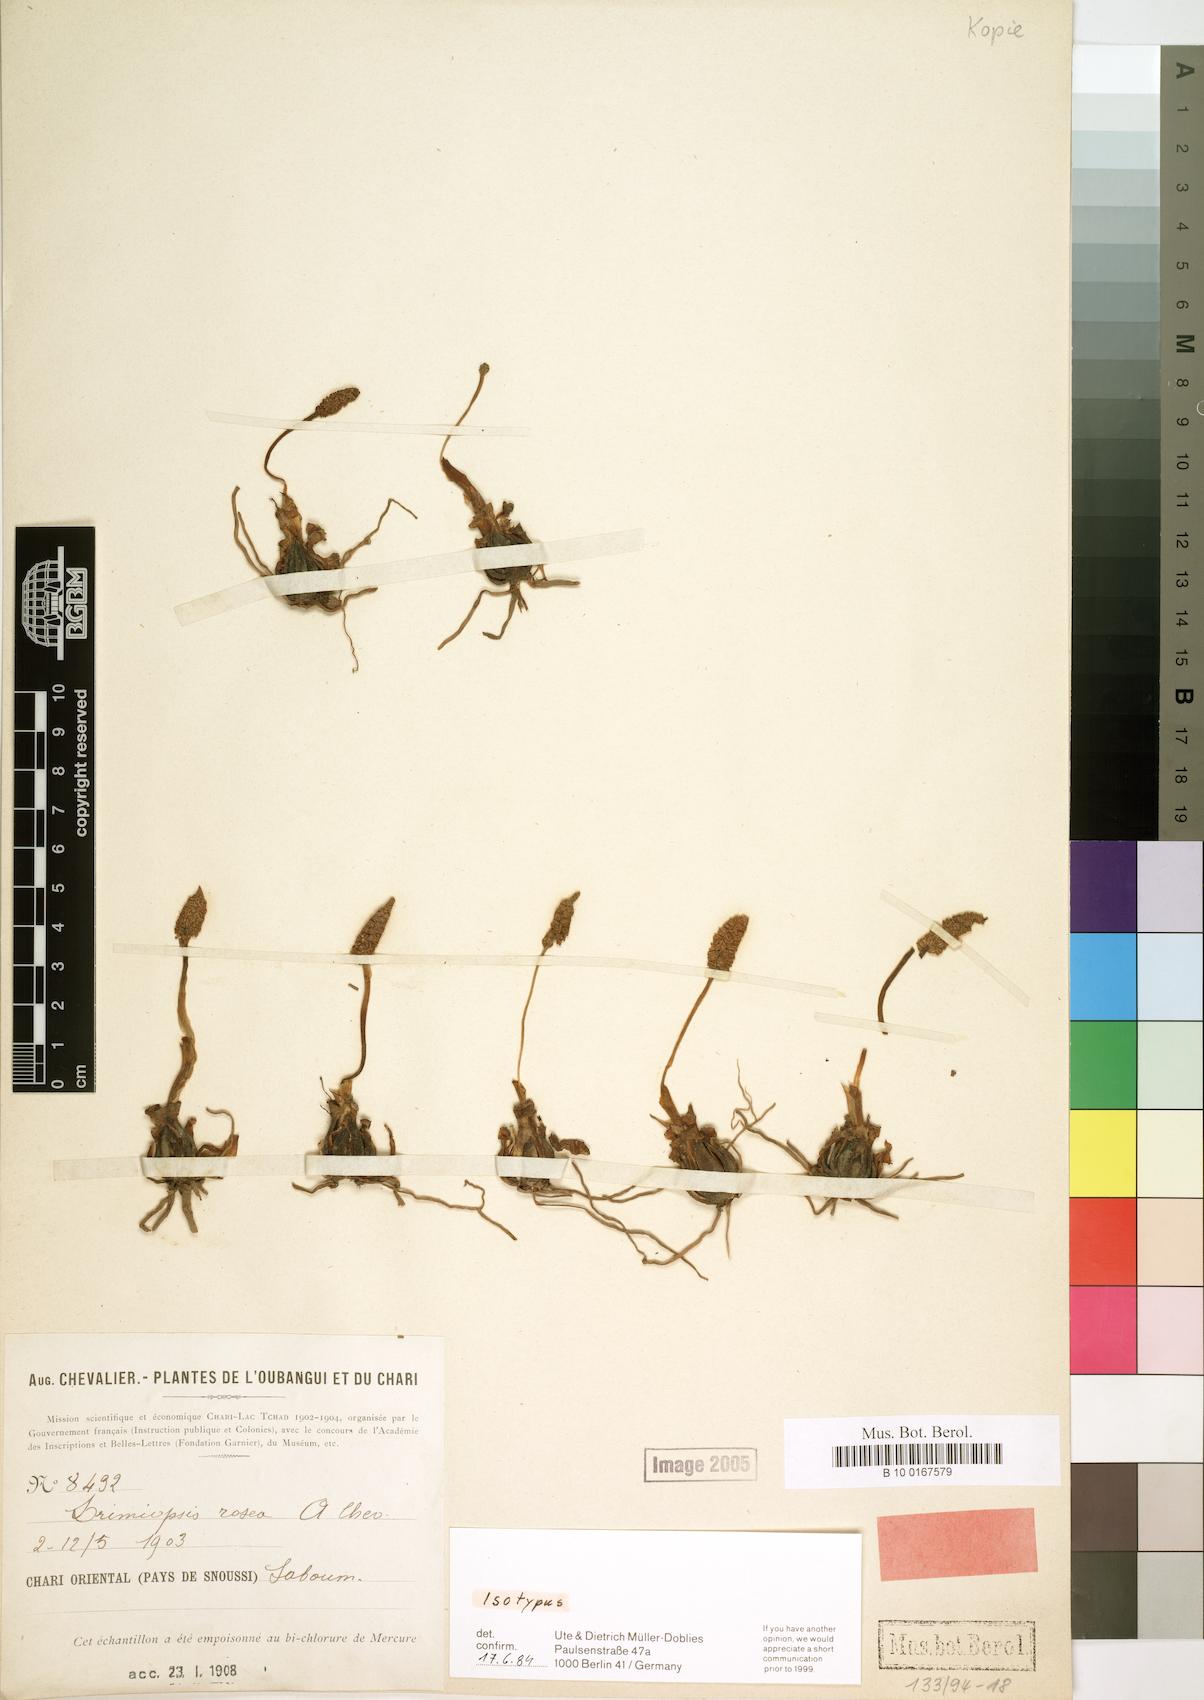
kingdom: Plantae
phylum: Tracheophyta
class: Liliopsida
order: Asparagales
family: Asparagaceae
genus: Drimiopsis
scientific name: Drimiopsis rosea
